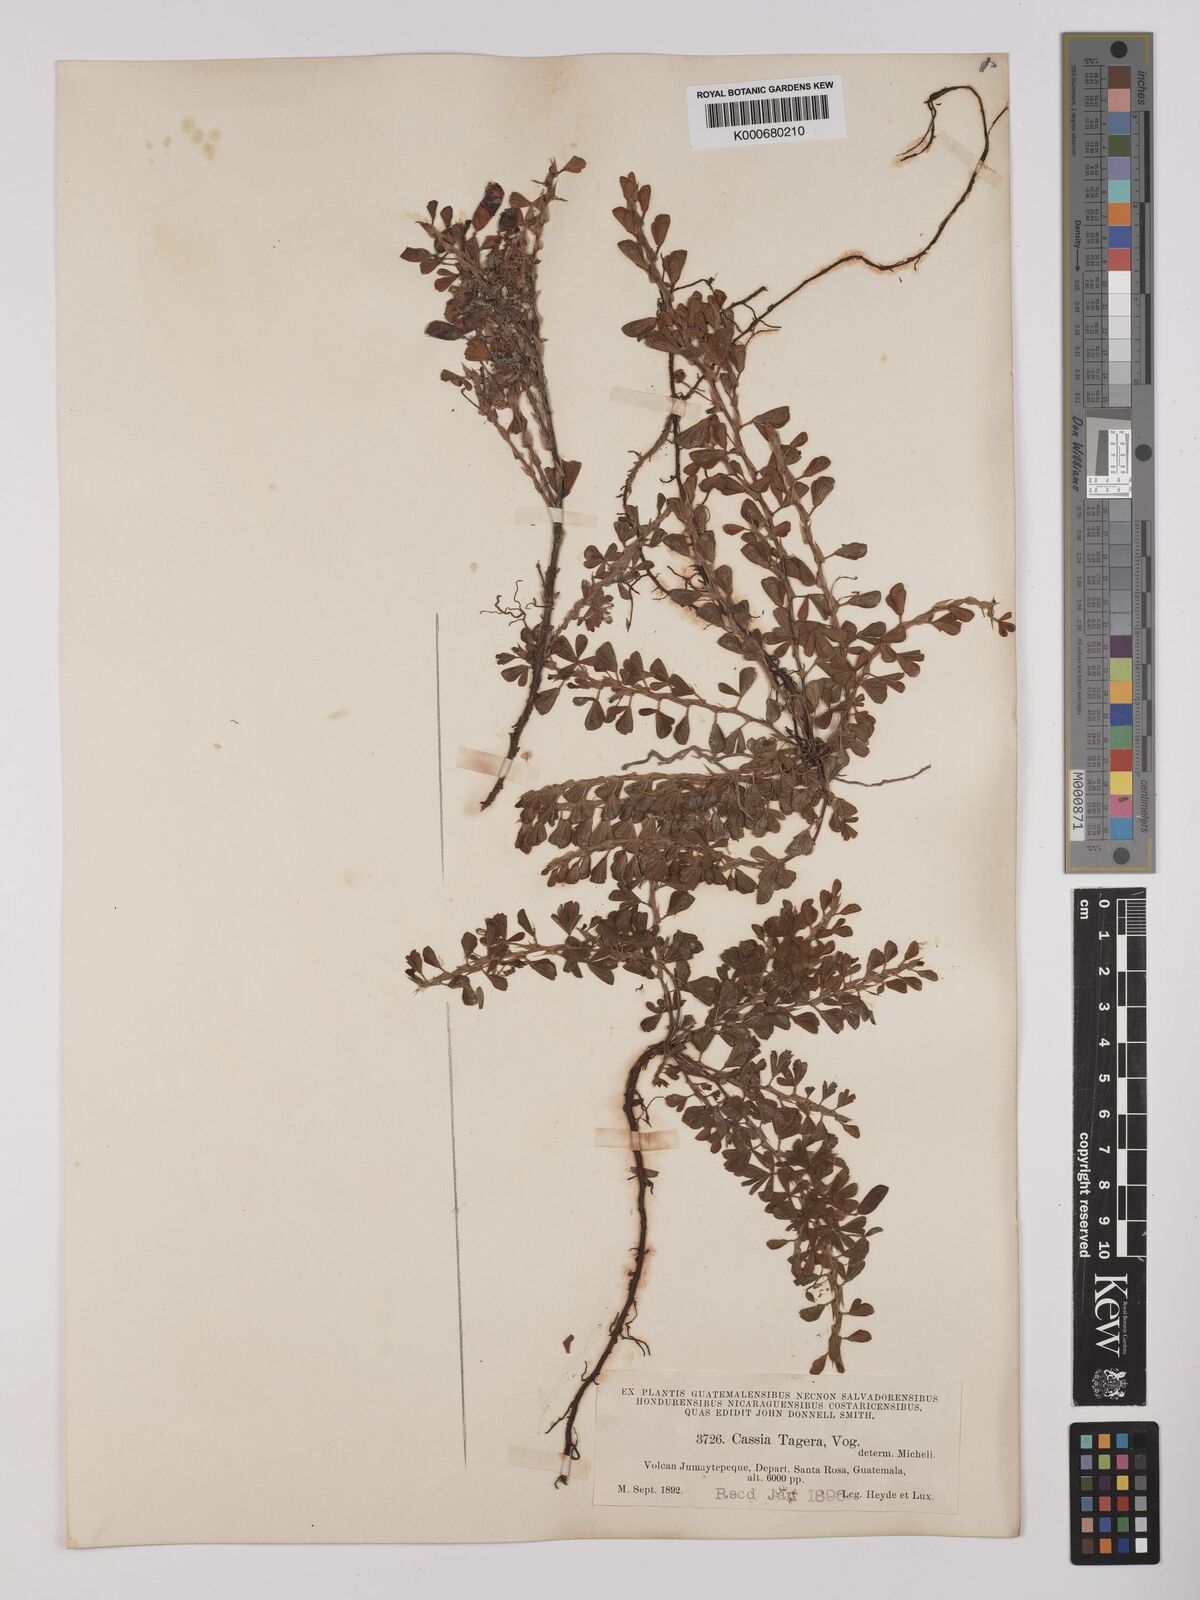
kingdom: Plantae
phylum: Tracheophyta
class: Magnoliopsida
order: Fabales
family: Fabaceae
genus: Chamaecrista
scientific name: Chamaecrista kunthiana
